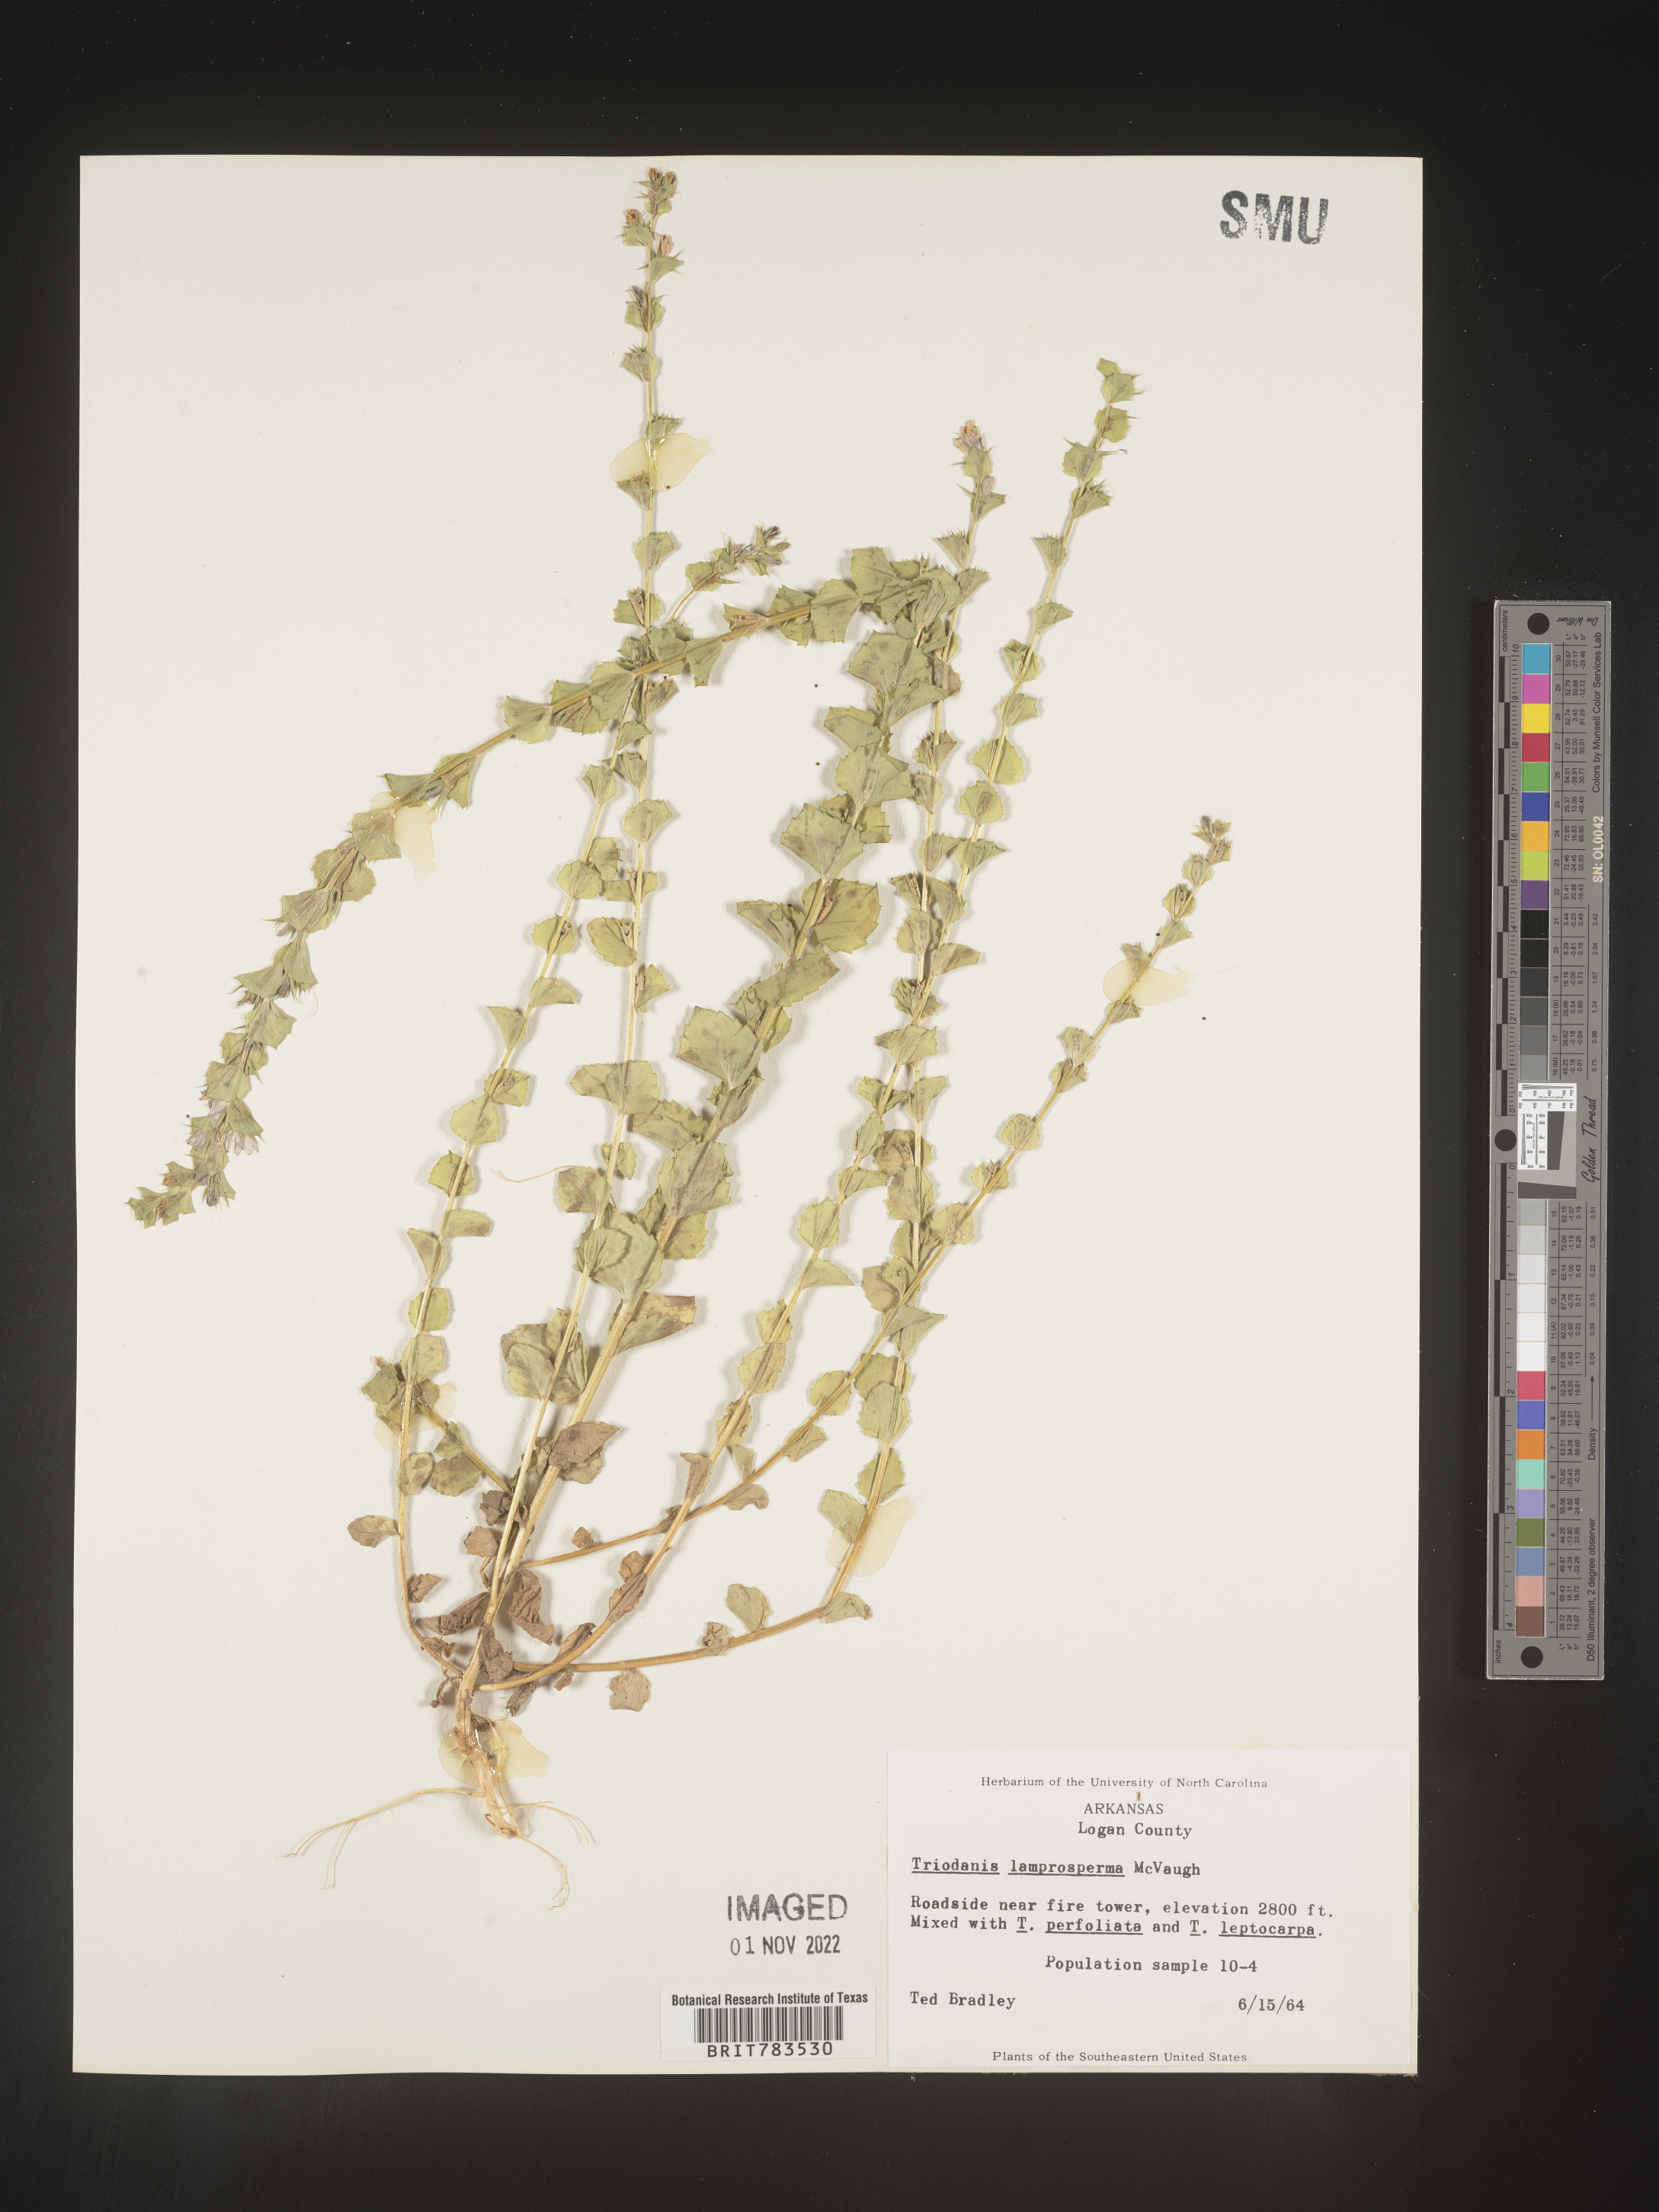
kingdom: Plantae
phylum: Tracheophyta
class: Magnoliopsida
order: Asterales
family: Campanulaceae
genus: Triodanis
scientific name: Triodanis lamprosperma
